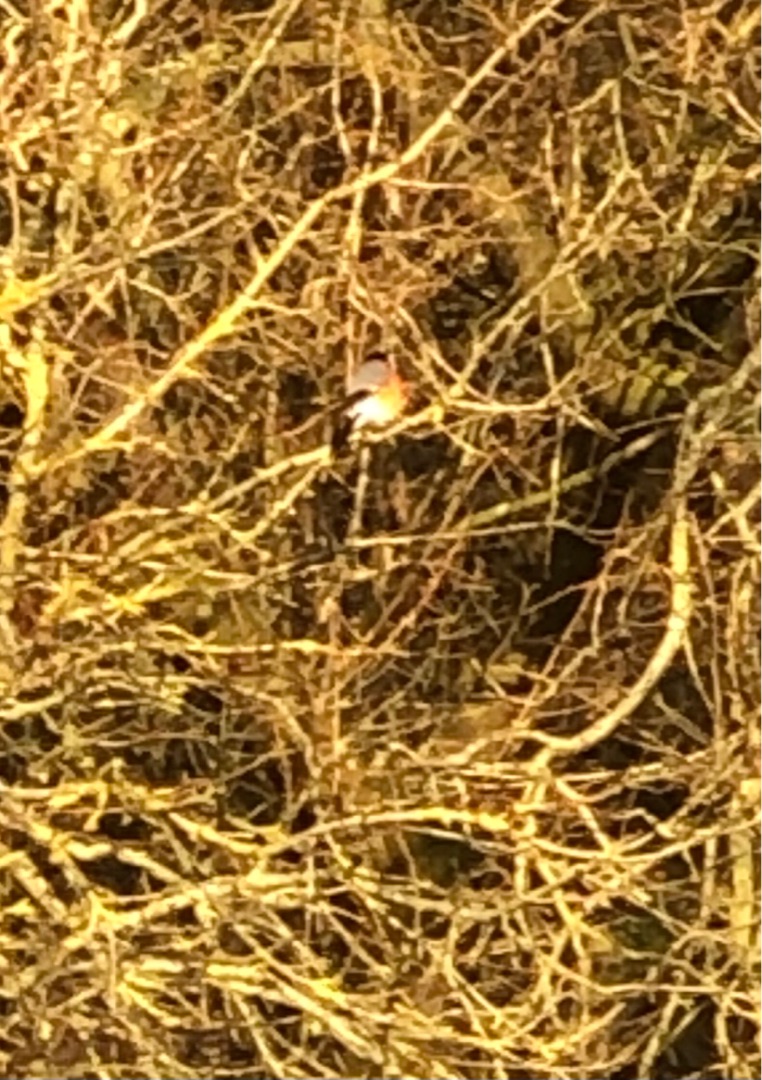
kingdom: Animalia
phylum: Chordata
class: Aves
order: Passeriformes
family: Fringillidae
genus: Pyrrhula
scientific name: Pyrrhula pyrrhula
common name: Dompap
